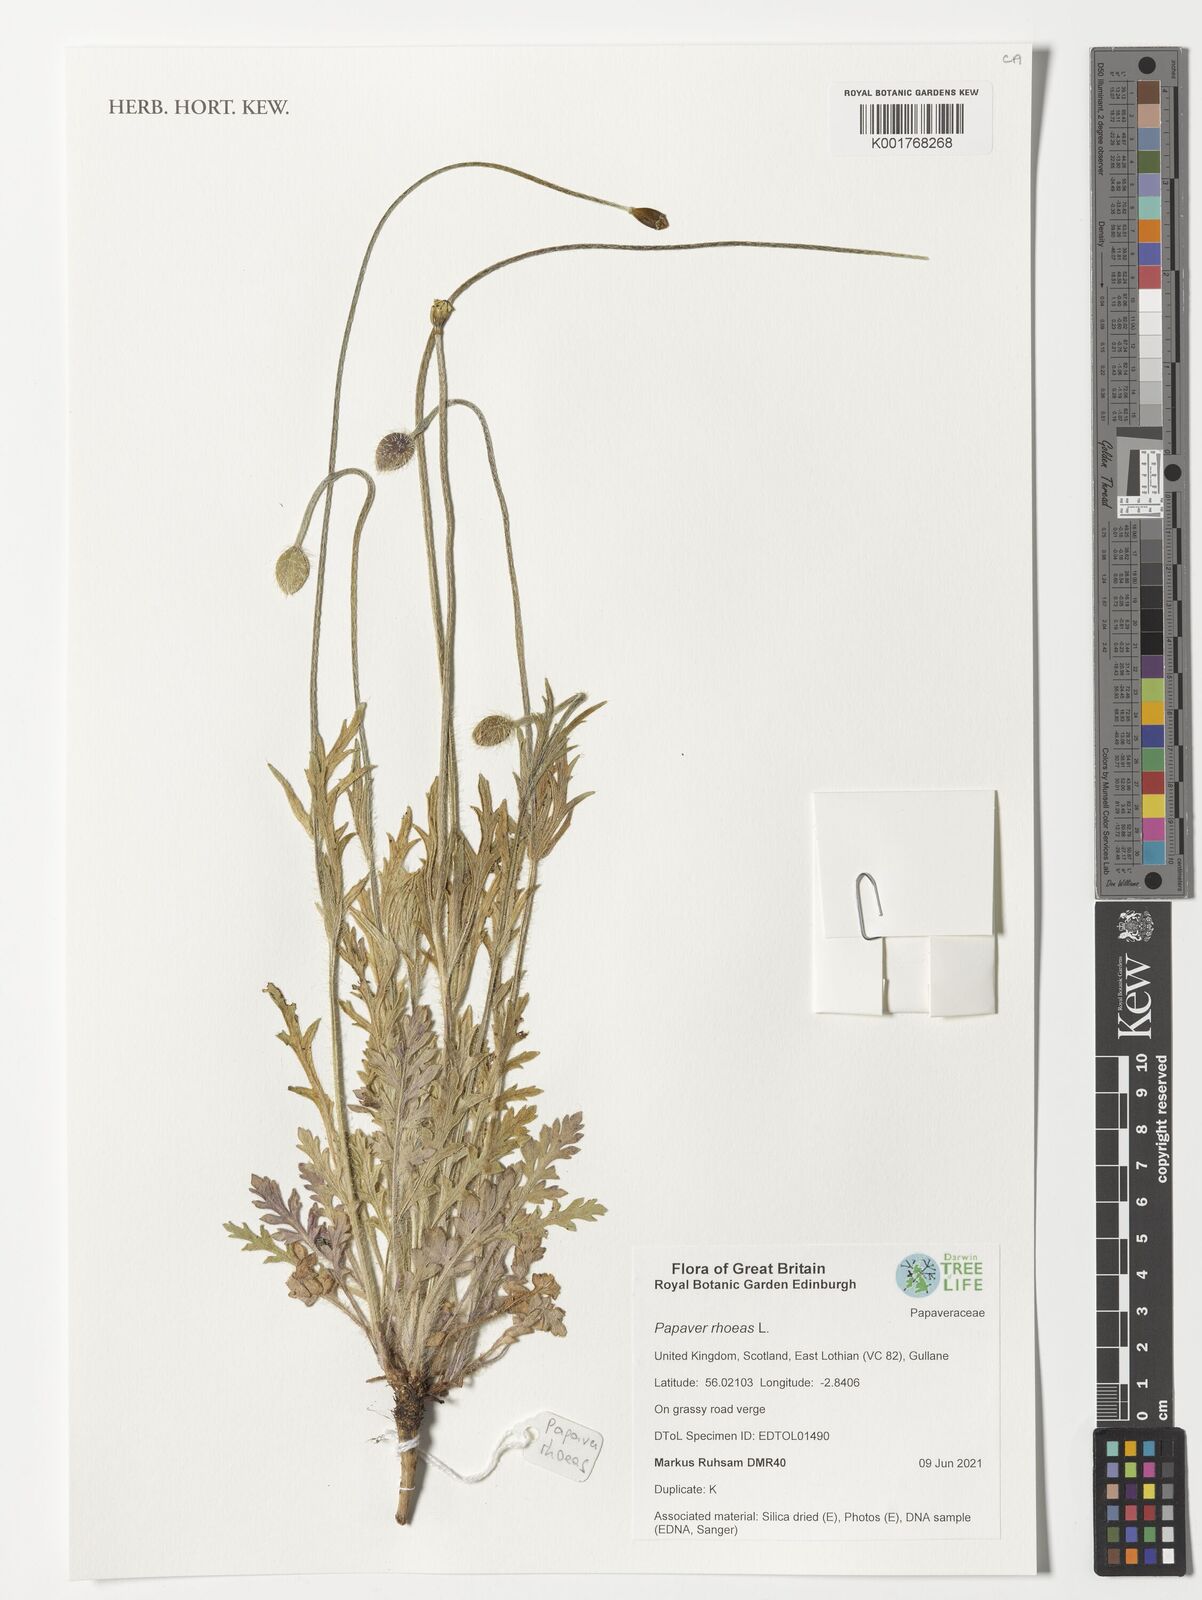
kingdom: Plantae
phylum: Tracheophyta
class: Magnoliopsida
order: Ranunculales
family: Papaveraceae
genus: Papaver
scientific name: Papaver rhoeas
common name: Corn poppy
